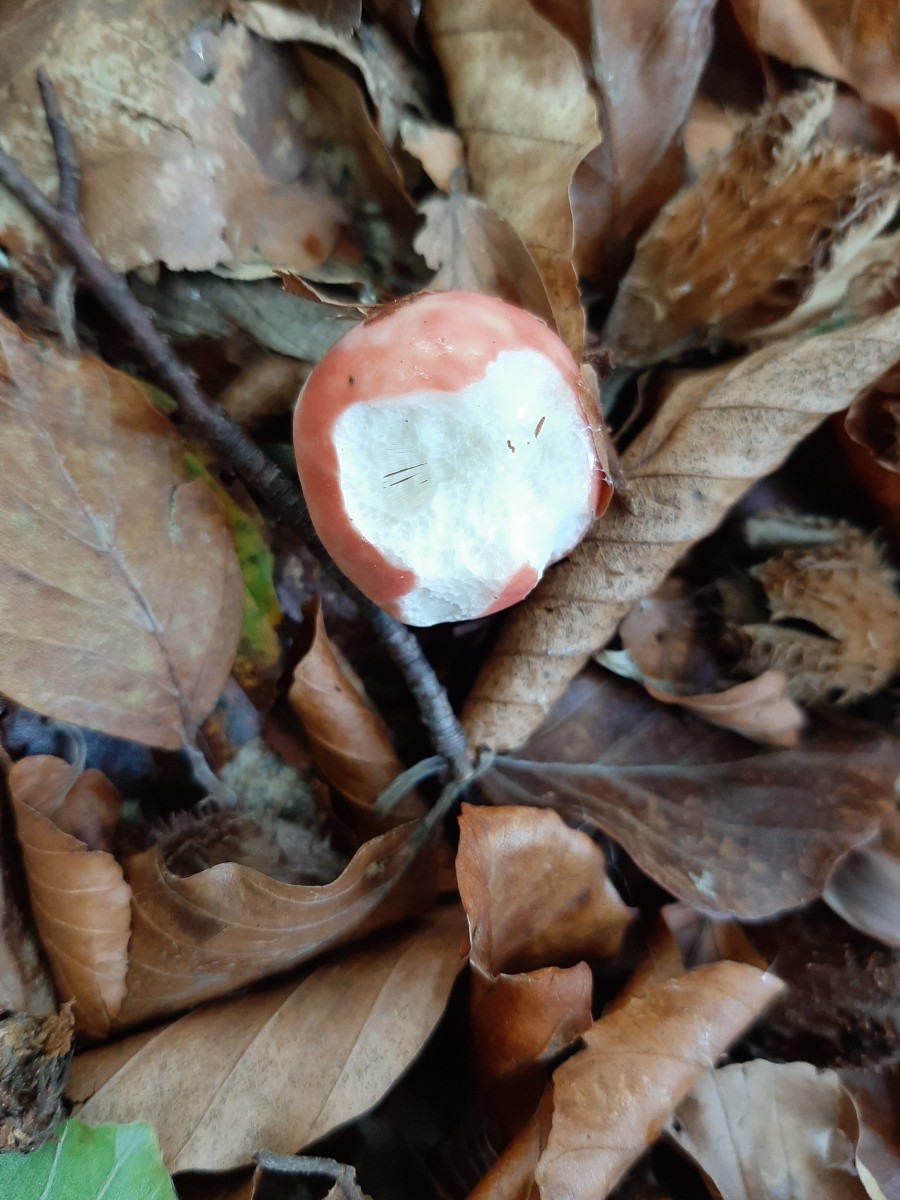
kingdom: Fungi
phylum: Basidiomycota
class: Agaricomycetes
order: Russulales
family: Russulaceae
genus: Russula
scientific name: Russula nobilis
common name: lille gift-skørhat
